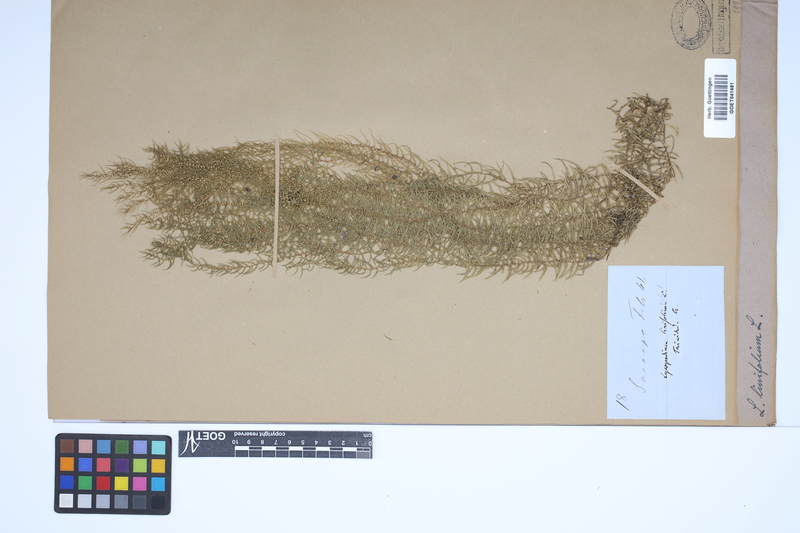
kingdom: Plantae
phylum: Tracheophyta
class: Lycopodiopsida
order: Lycopodiales
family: Lycopodiaceae
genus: Phlegmariurus
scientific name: Phlegmariurus linifolius
